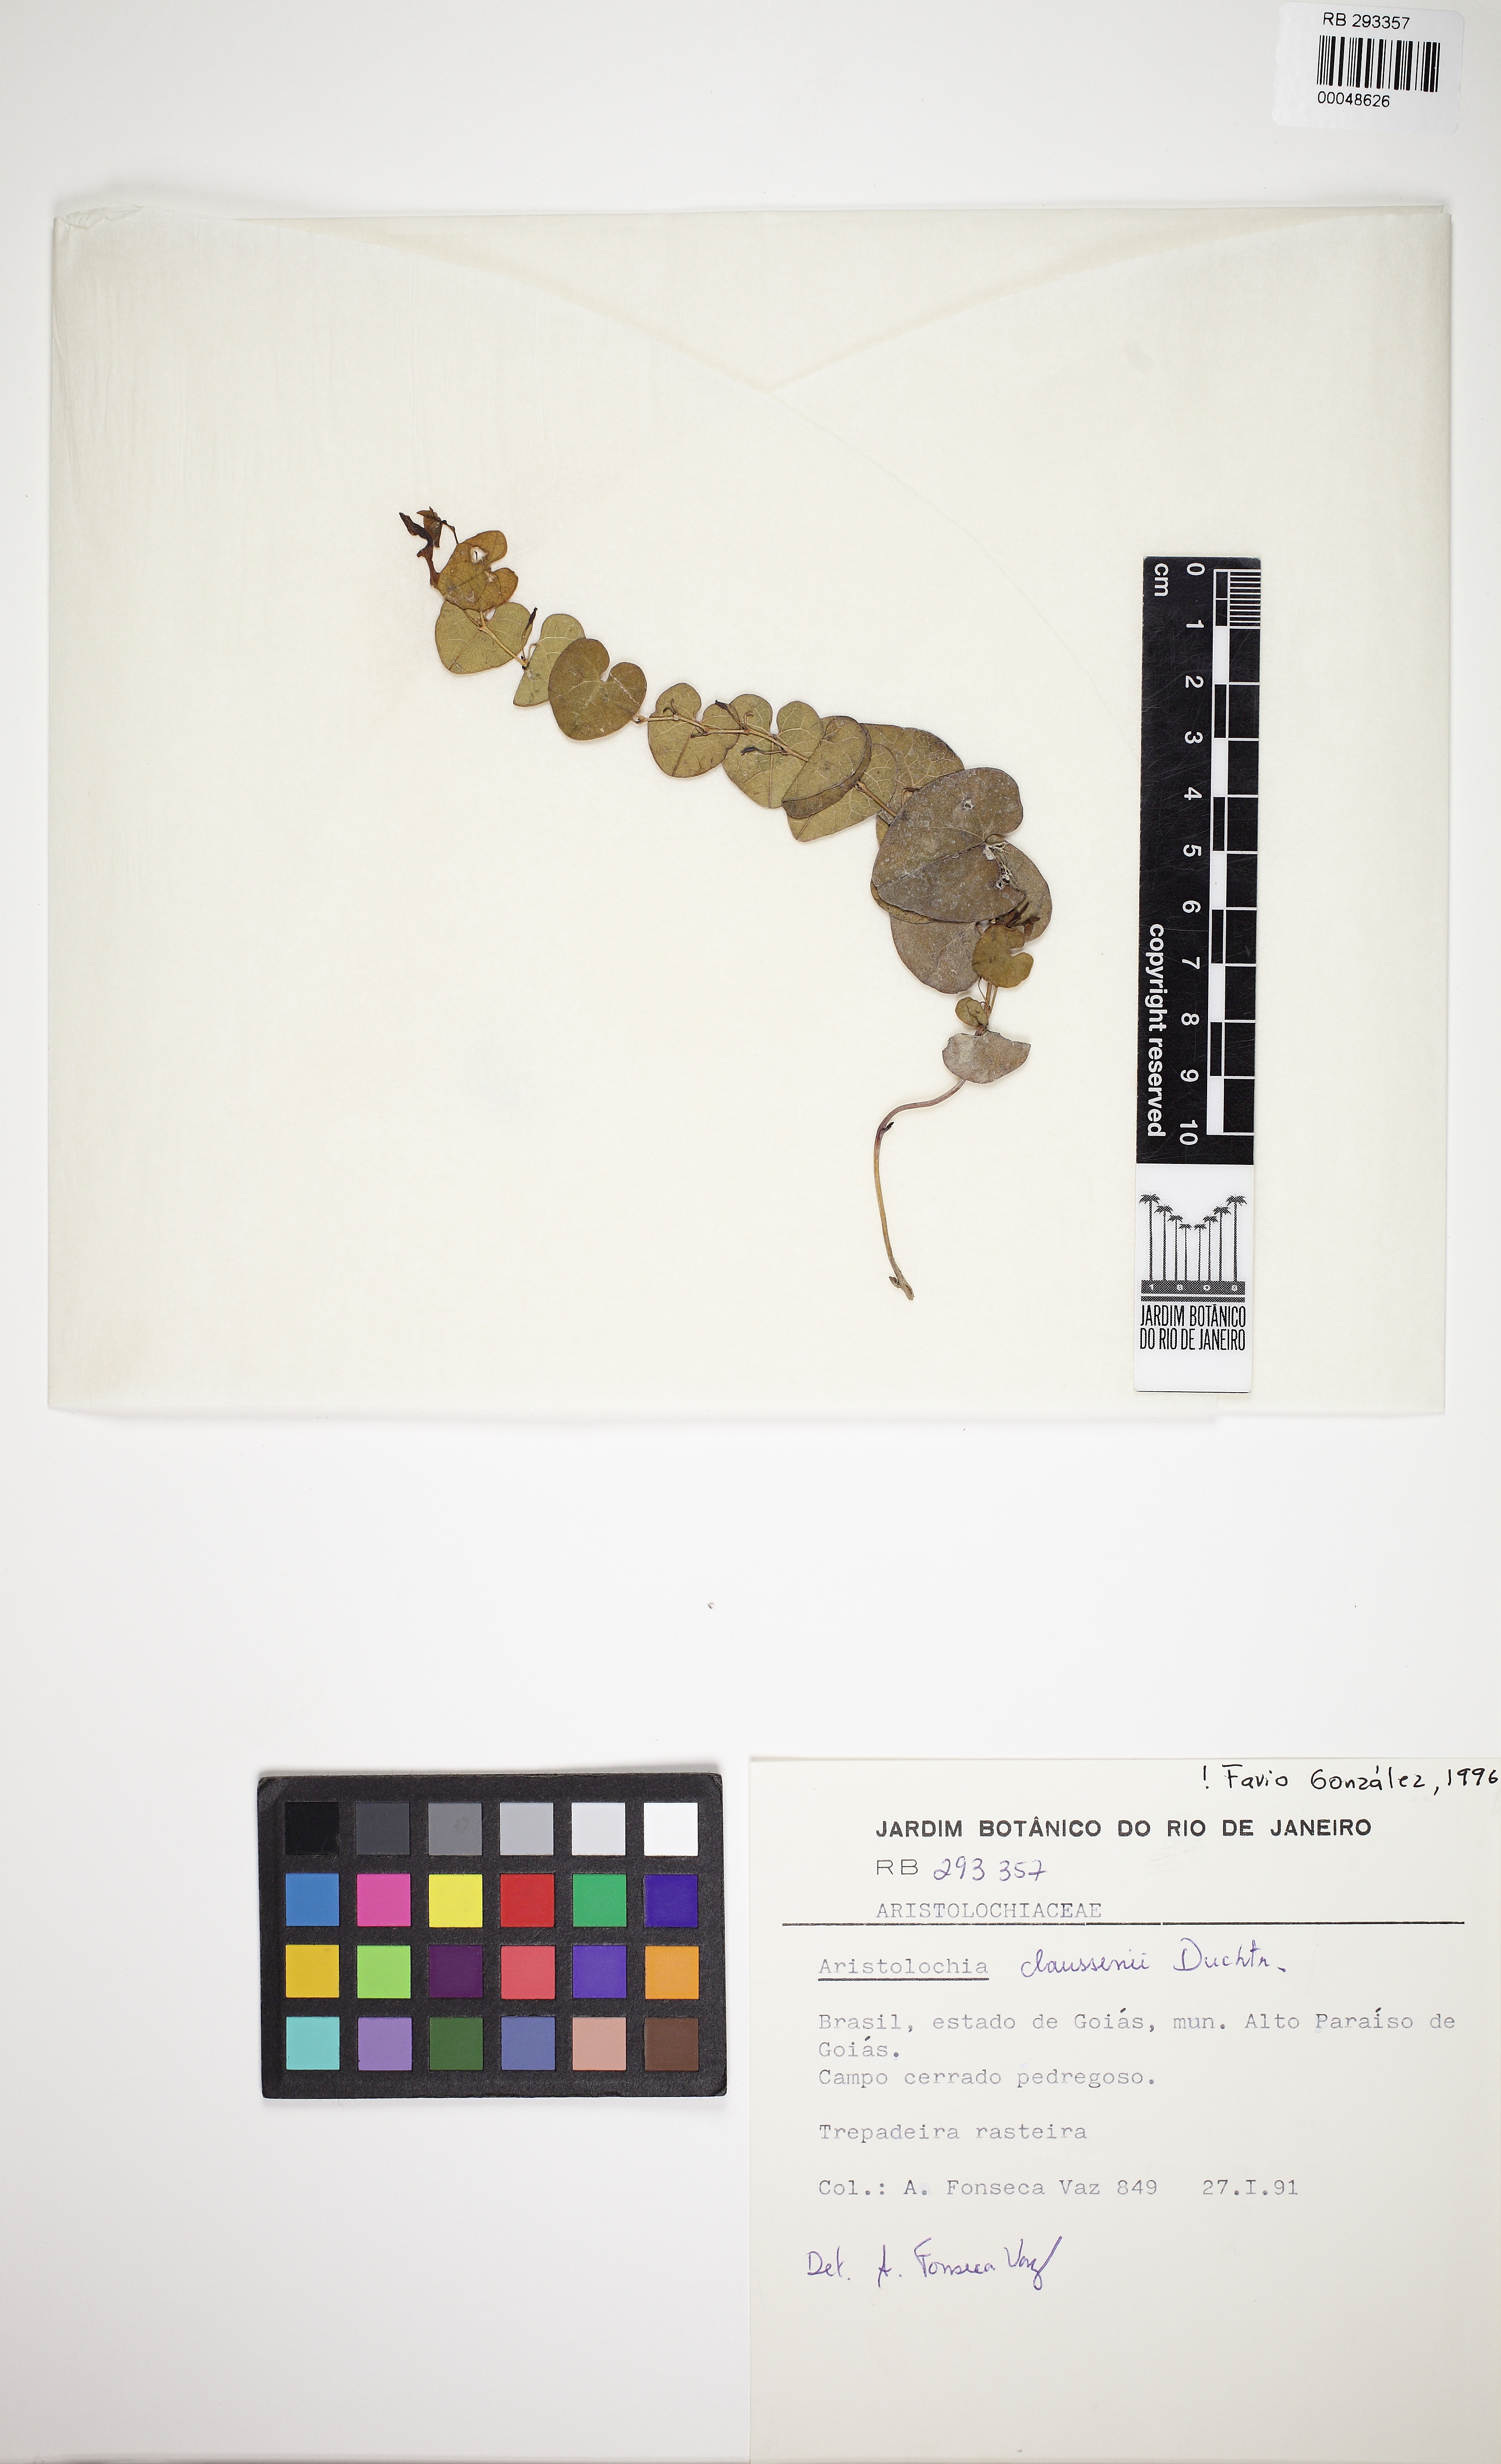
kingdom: Plantae
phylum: Tracheophyta
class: Magnoliopsida
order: Piperales
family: Aristolochiaceae
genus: Aristolochia
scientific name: Aristolochia nummularifolia
